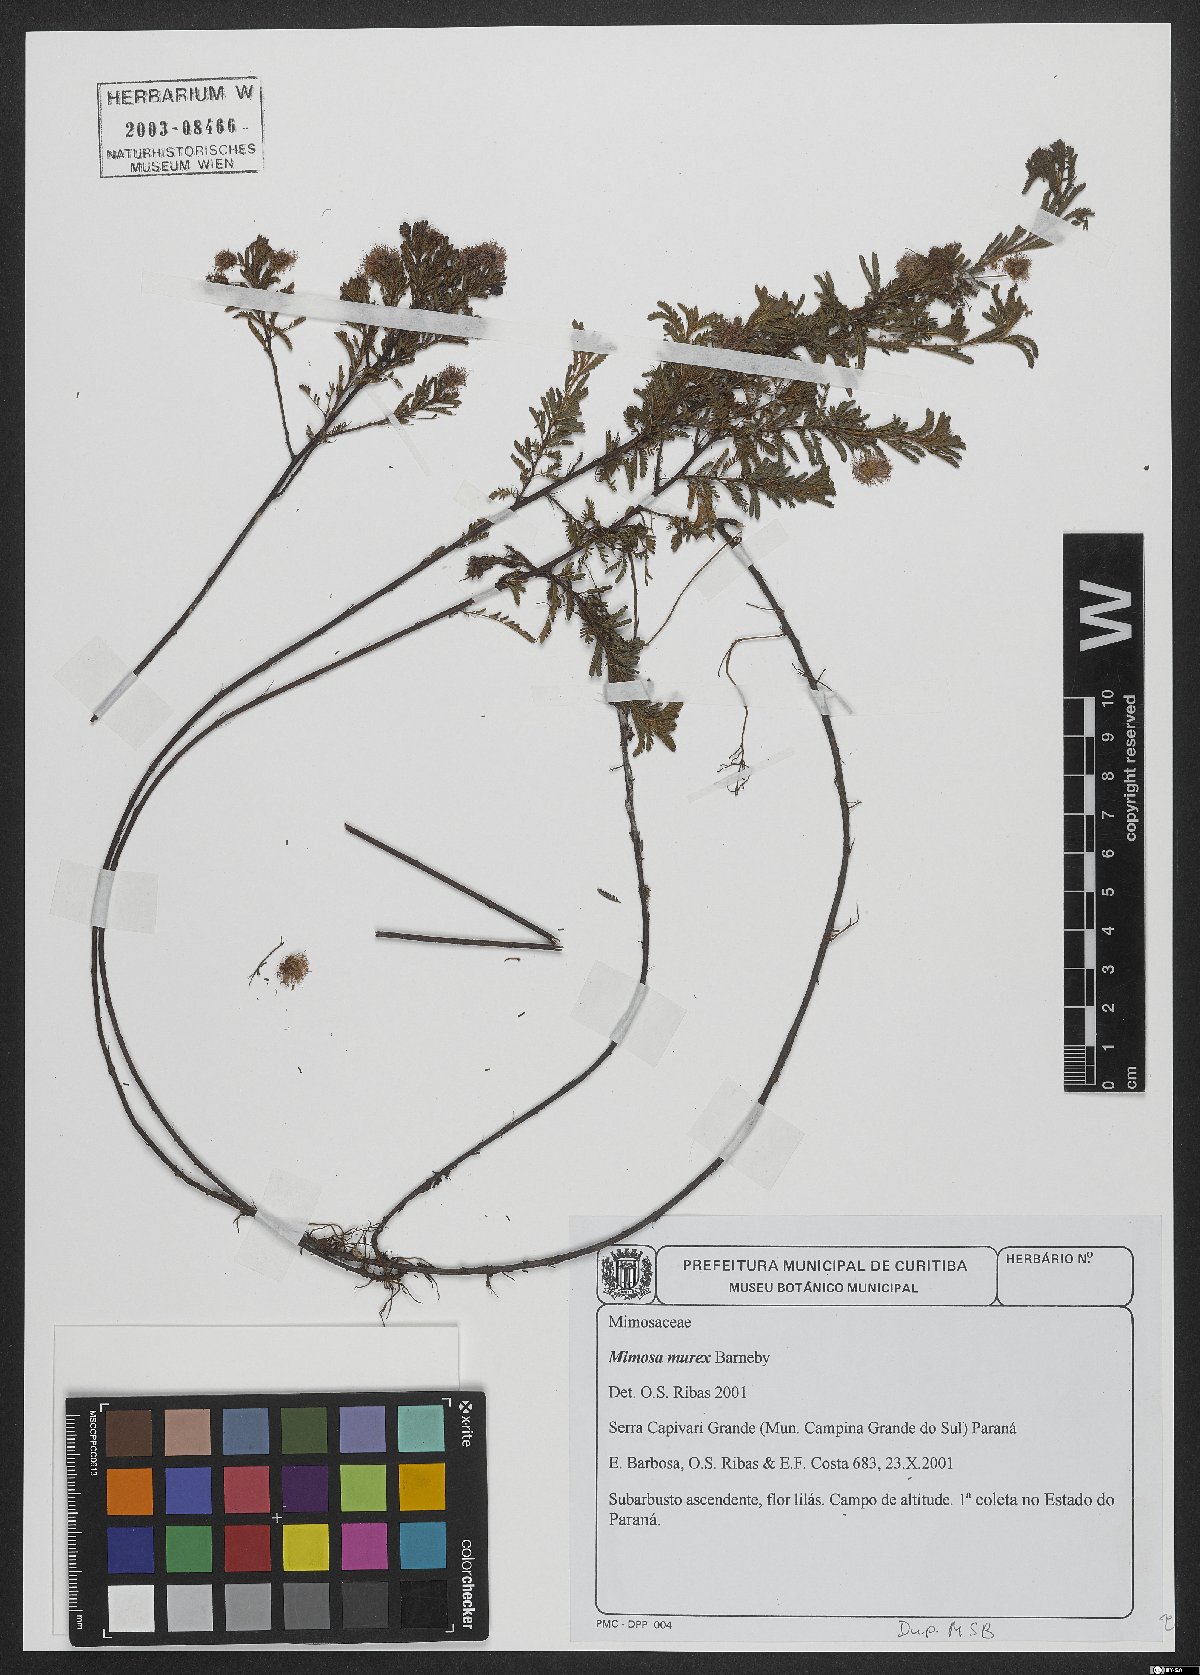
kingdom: Plantae
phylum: Tracheophyta
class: Magnoliopsida
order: Fabales
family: Fabaceae
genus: Mimosa
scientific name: Mimosa murex
